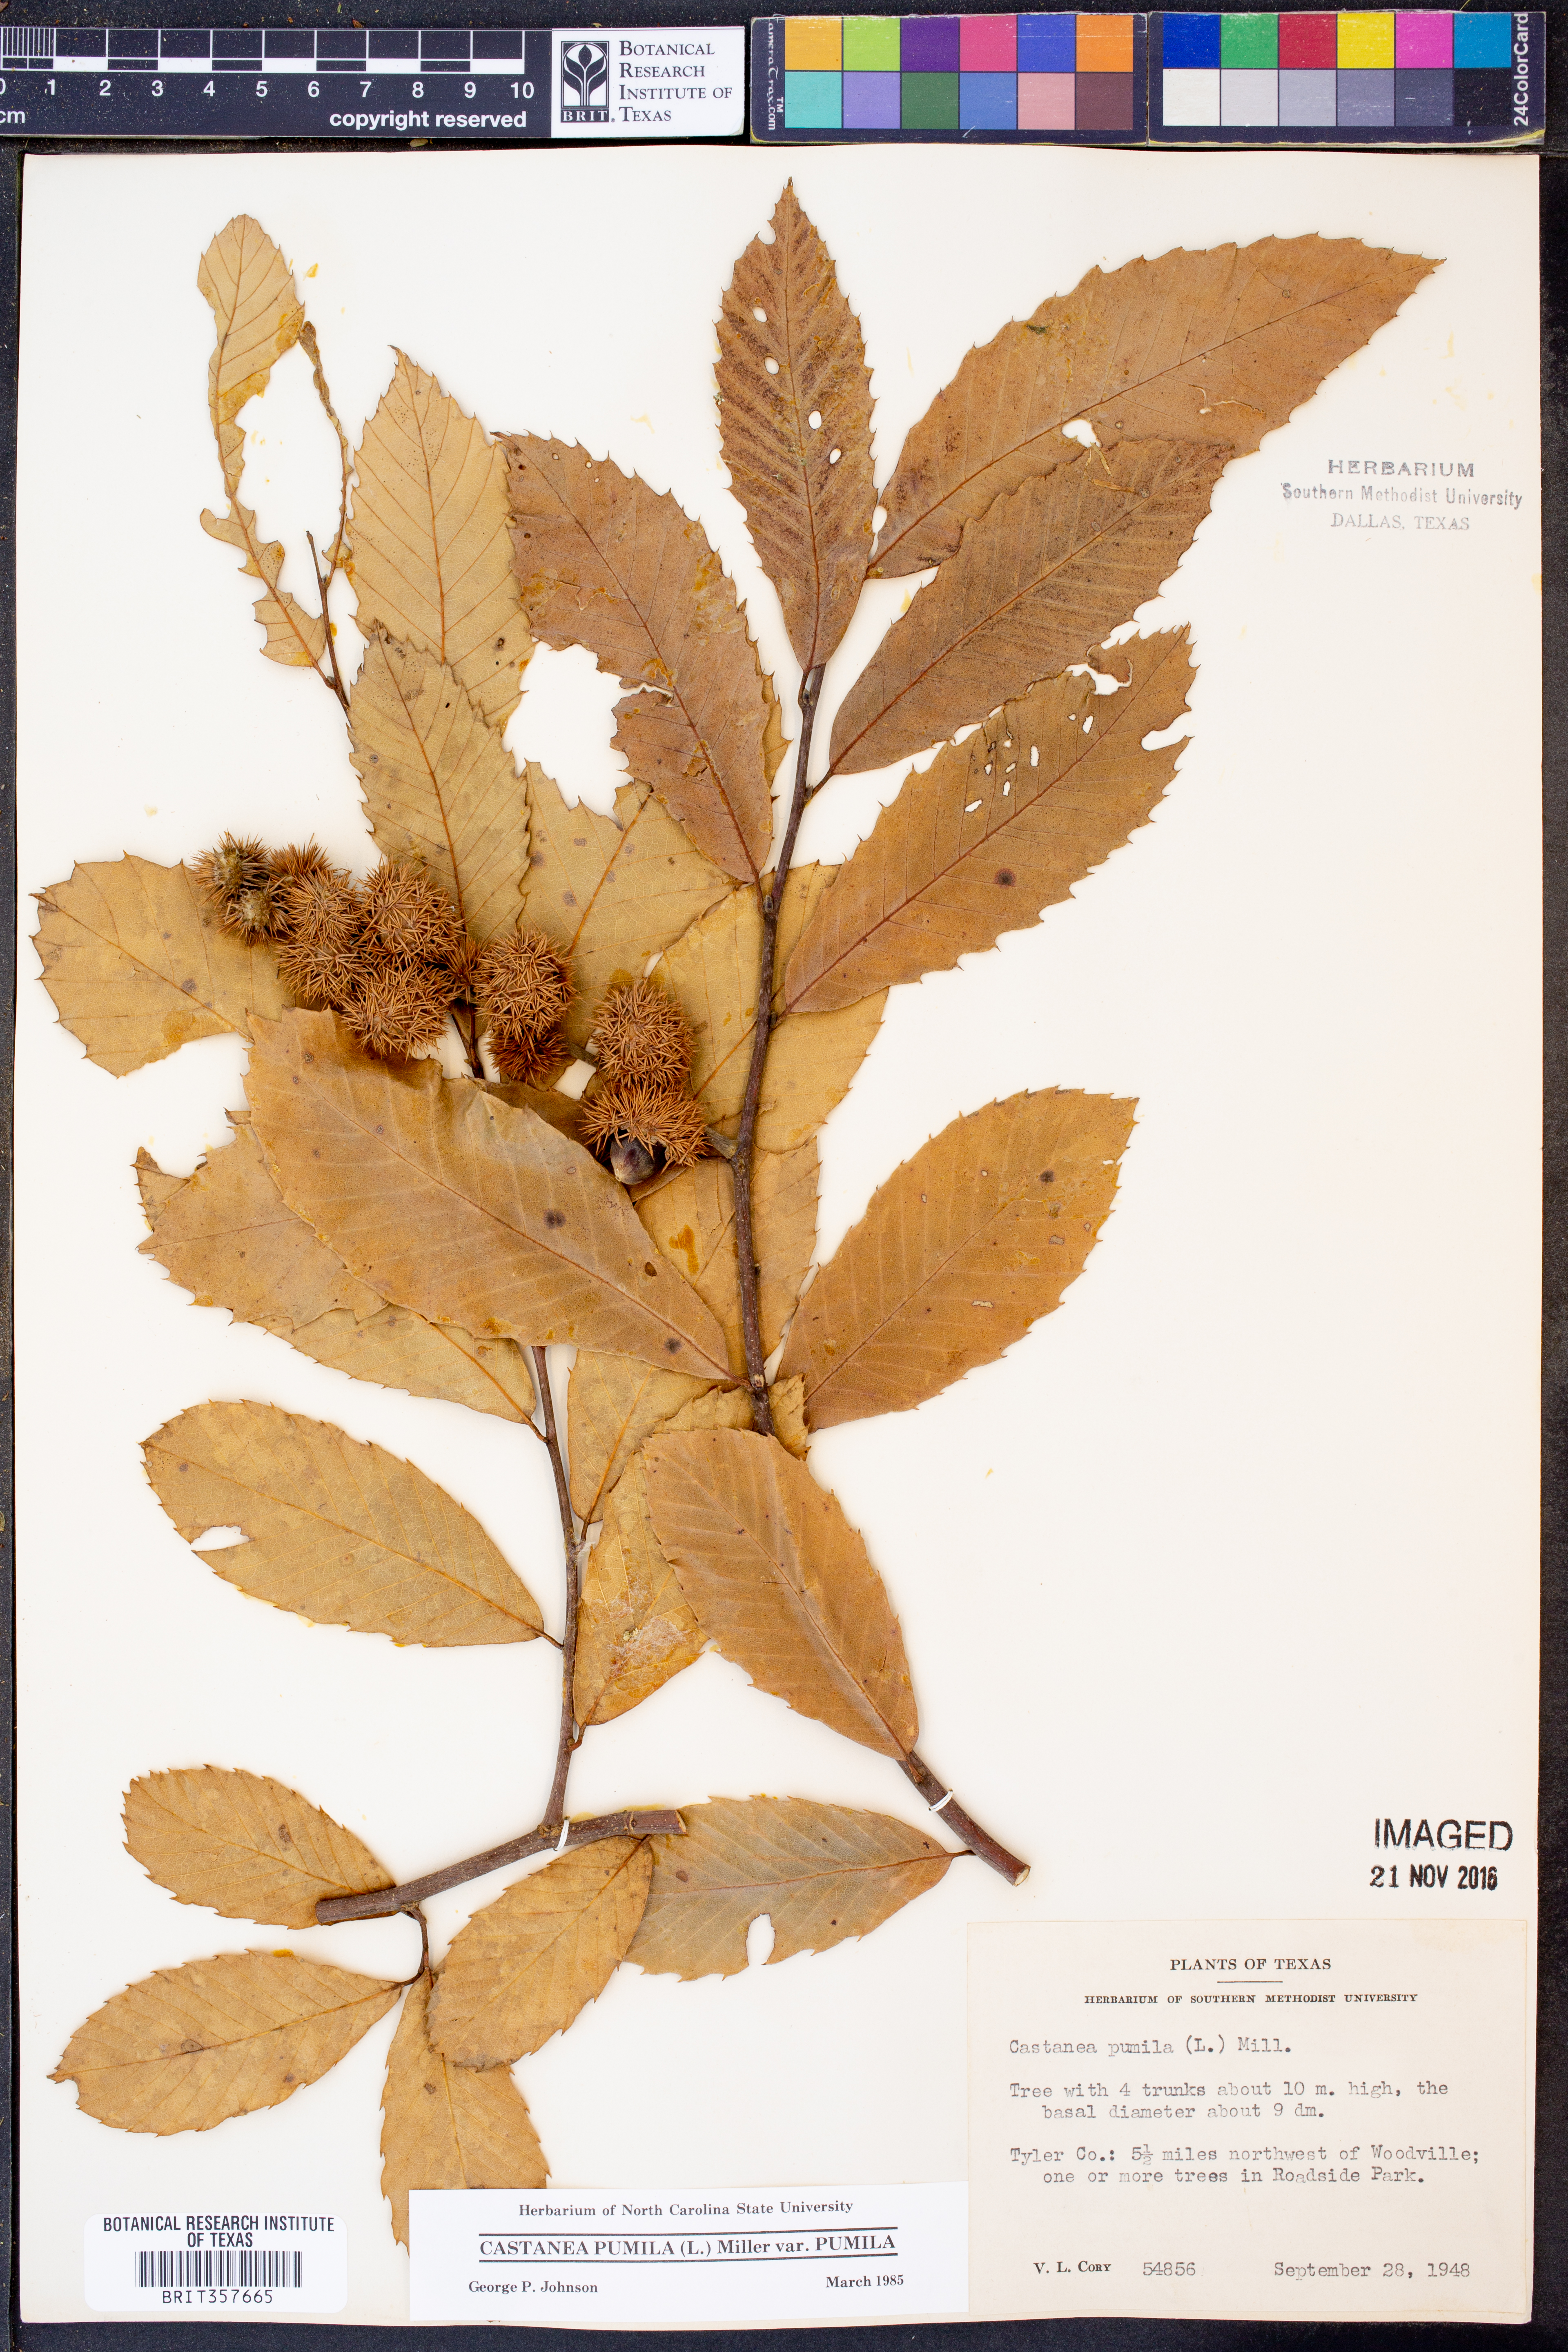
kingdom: Plantae
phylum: Tracheophyta
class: Magnoliopsida
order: Fagales
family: Fagaceae
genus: Castanea
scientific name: Castanea pumila
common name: Chinkapin
